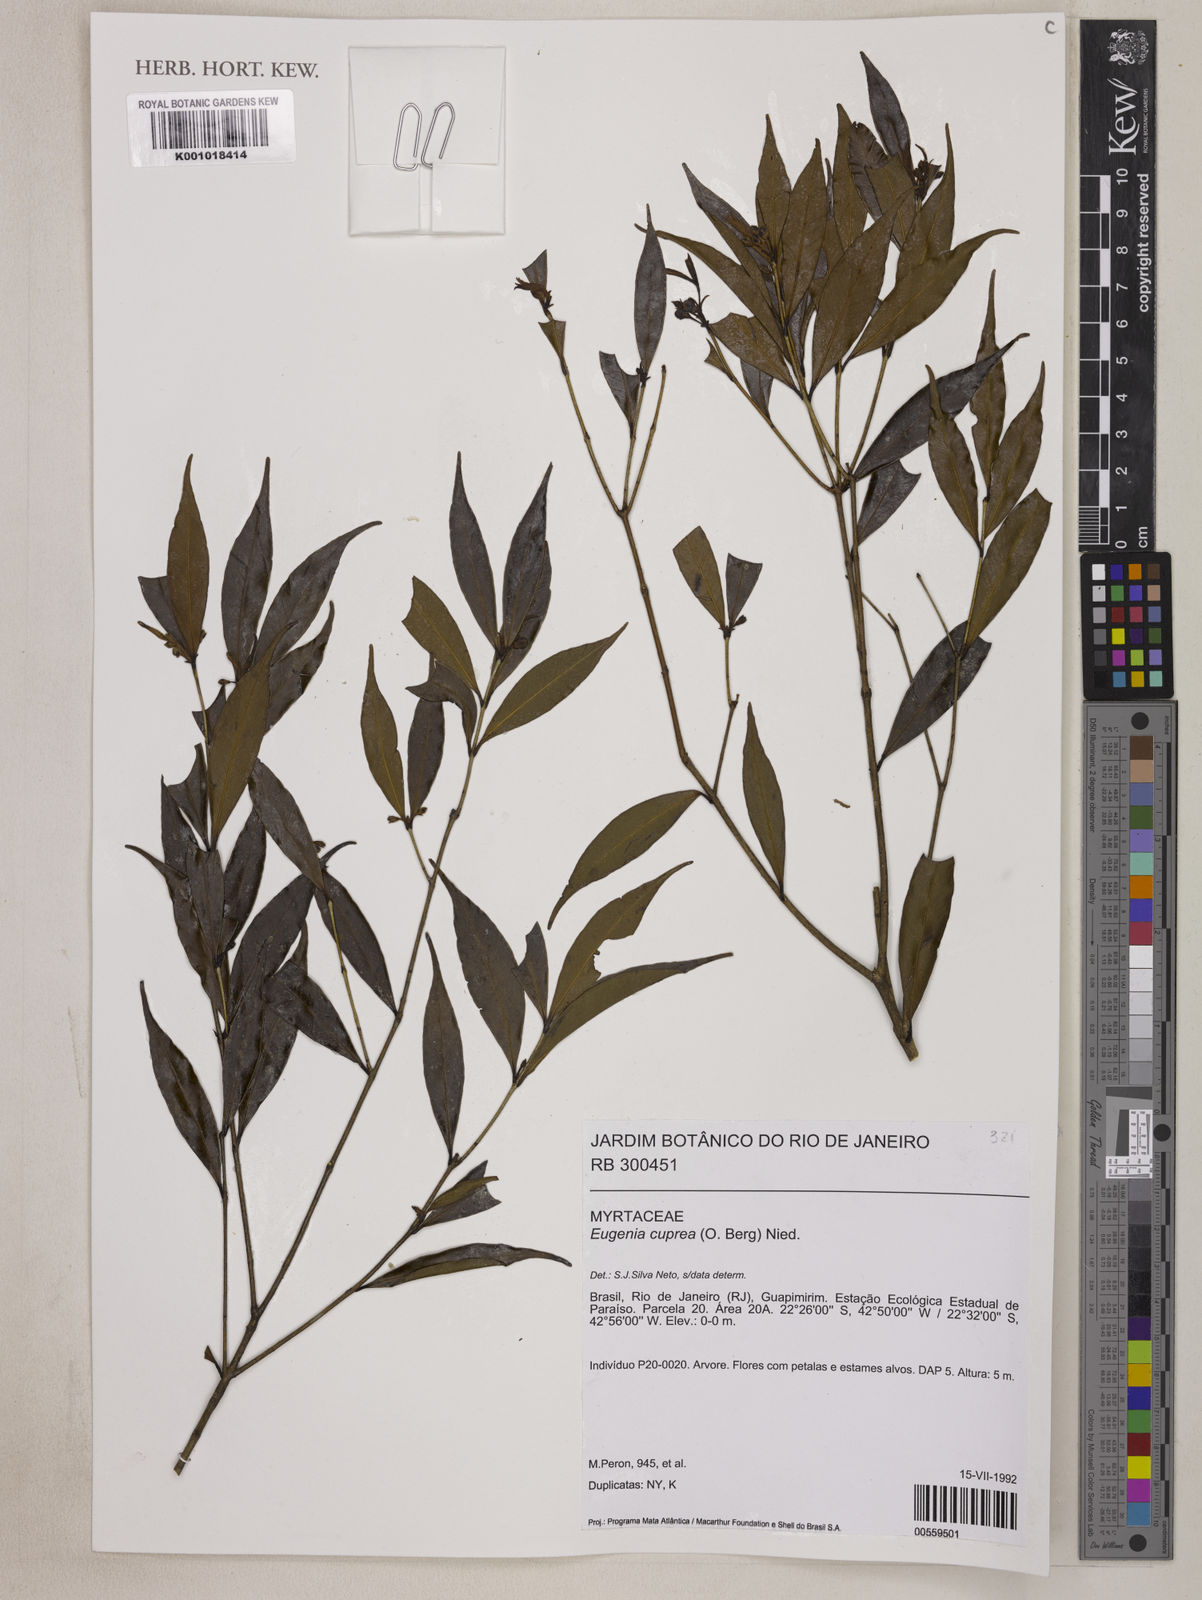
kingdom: Plantae
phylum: Tracheophyta
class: Magnoliopsida
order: Myrtales
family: Myrtaceae
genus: Eugenia
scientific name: Eugenia cuprea
